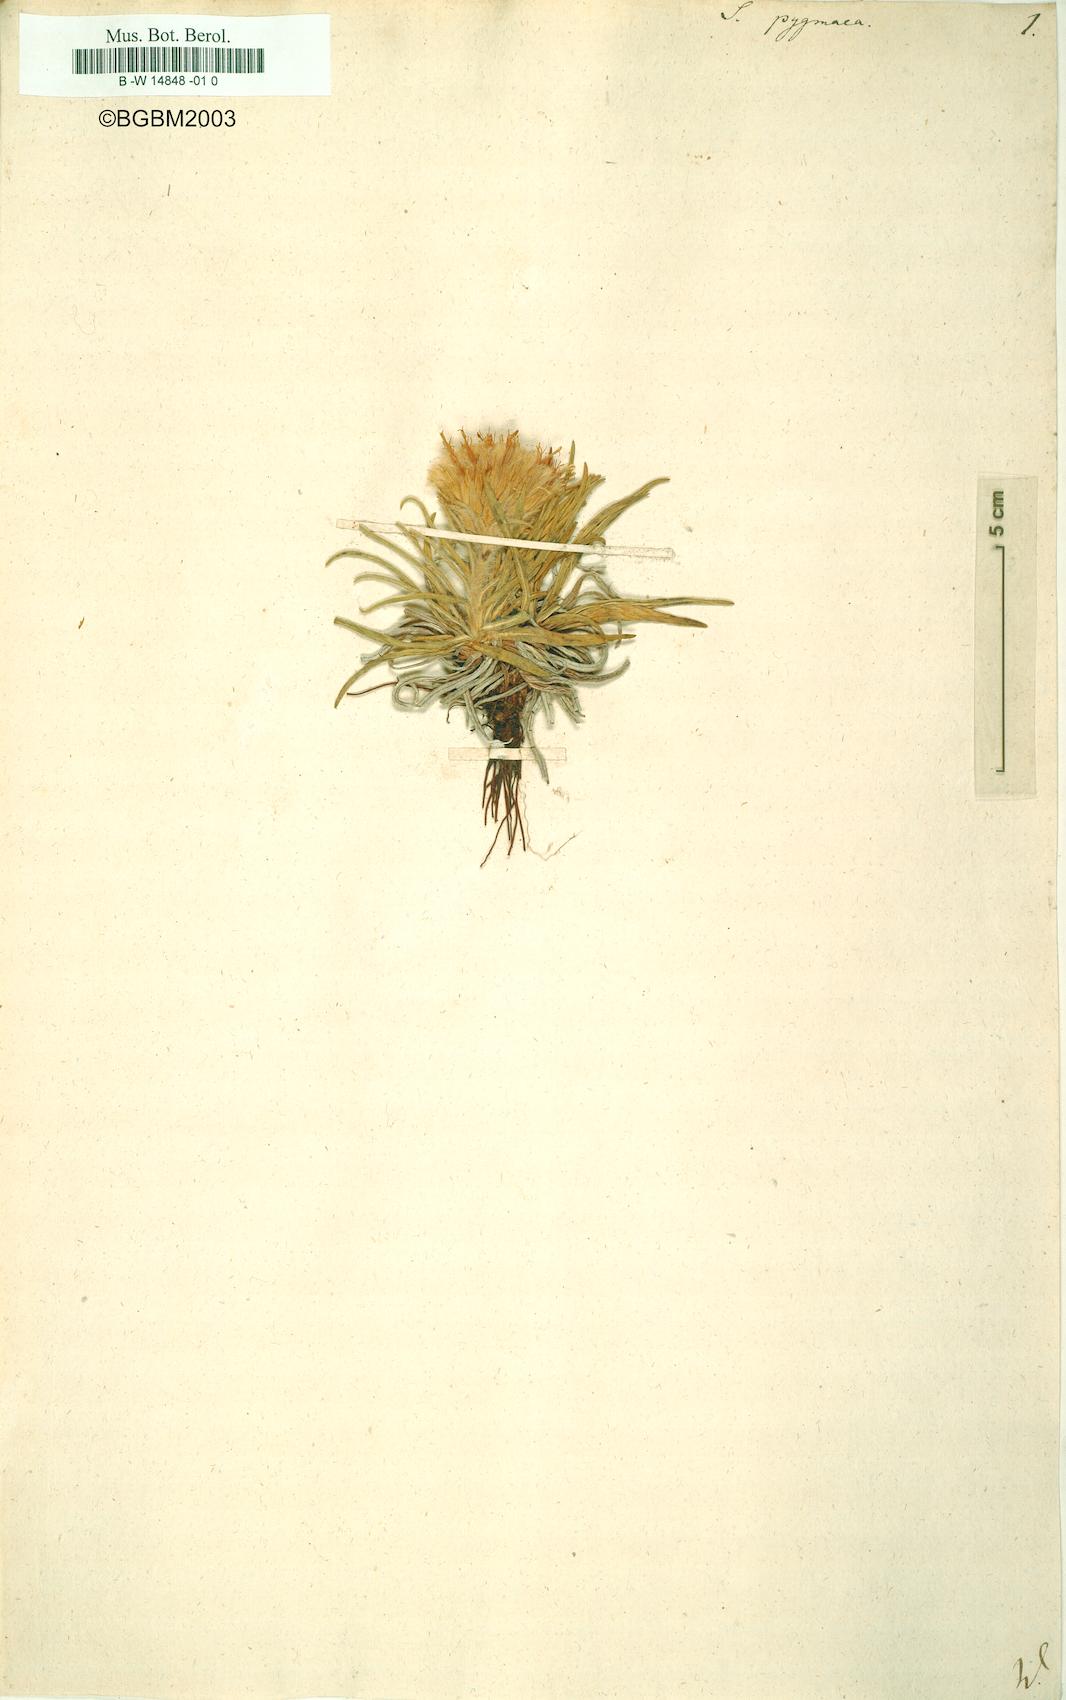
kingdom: Plantae
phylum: Tracheophyta
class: Magnoliopsida
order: Asterales
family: Asteraceae
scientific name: Asteraceae
